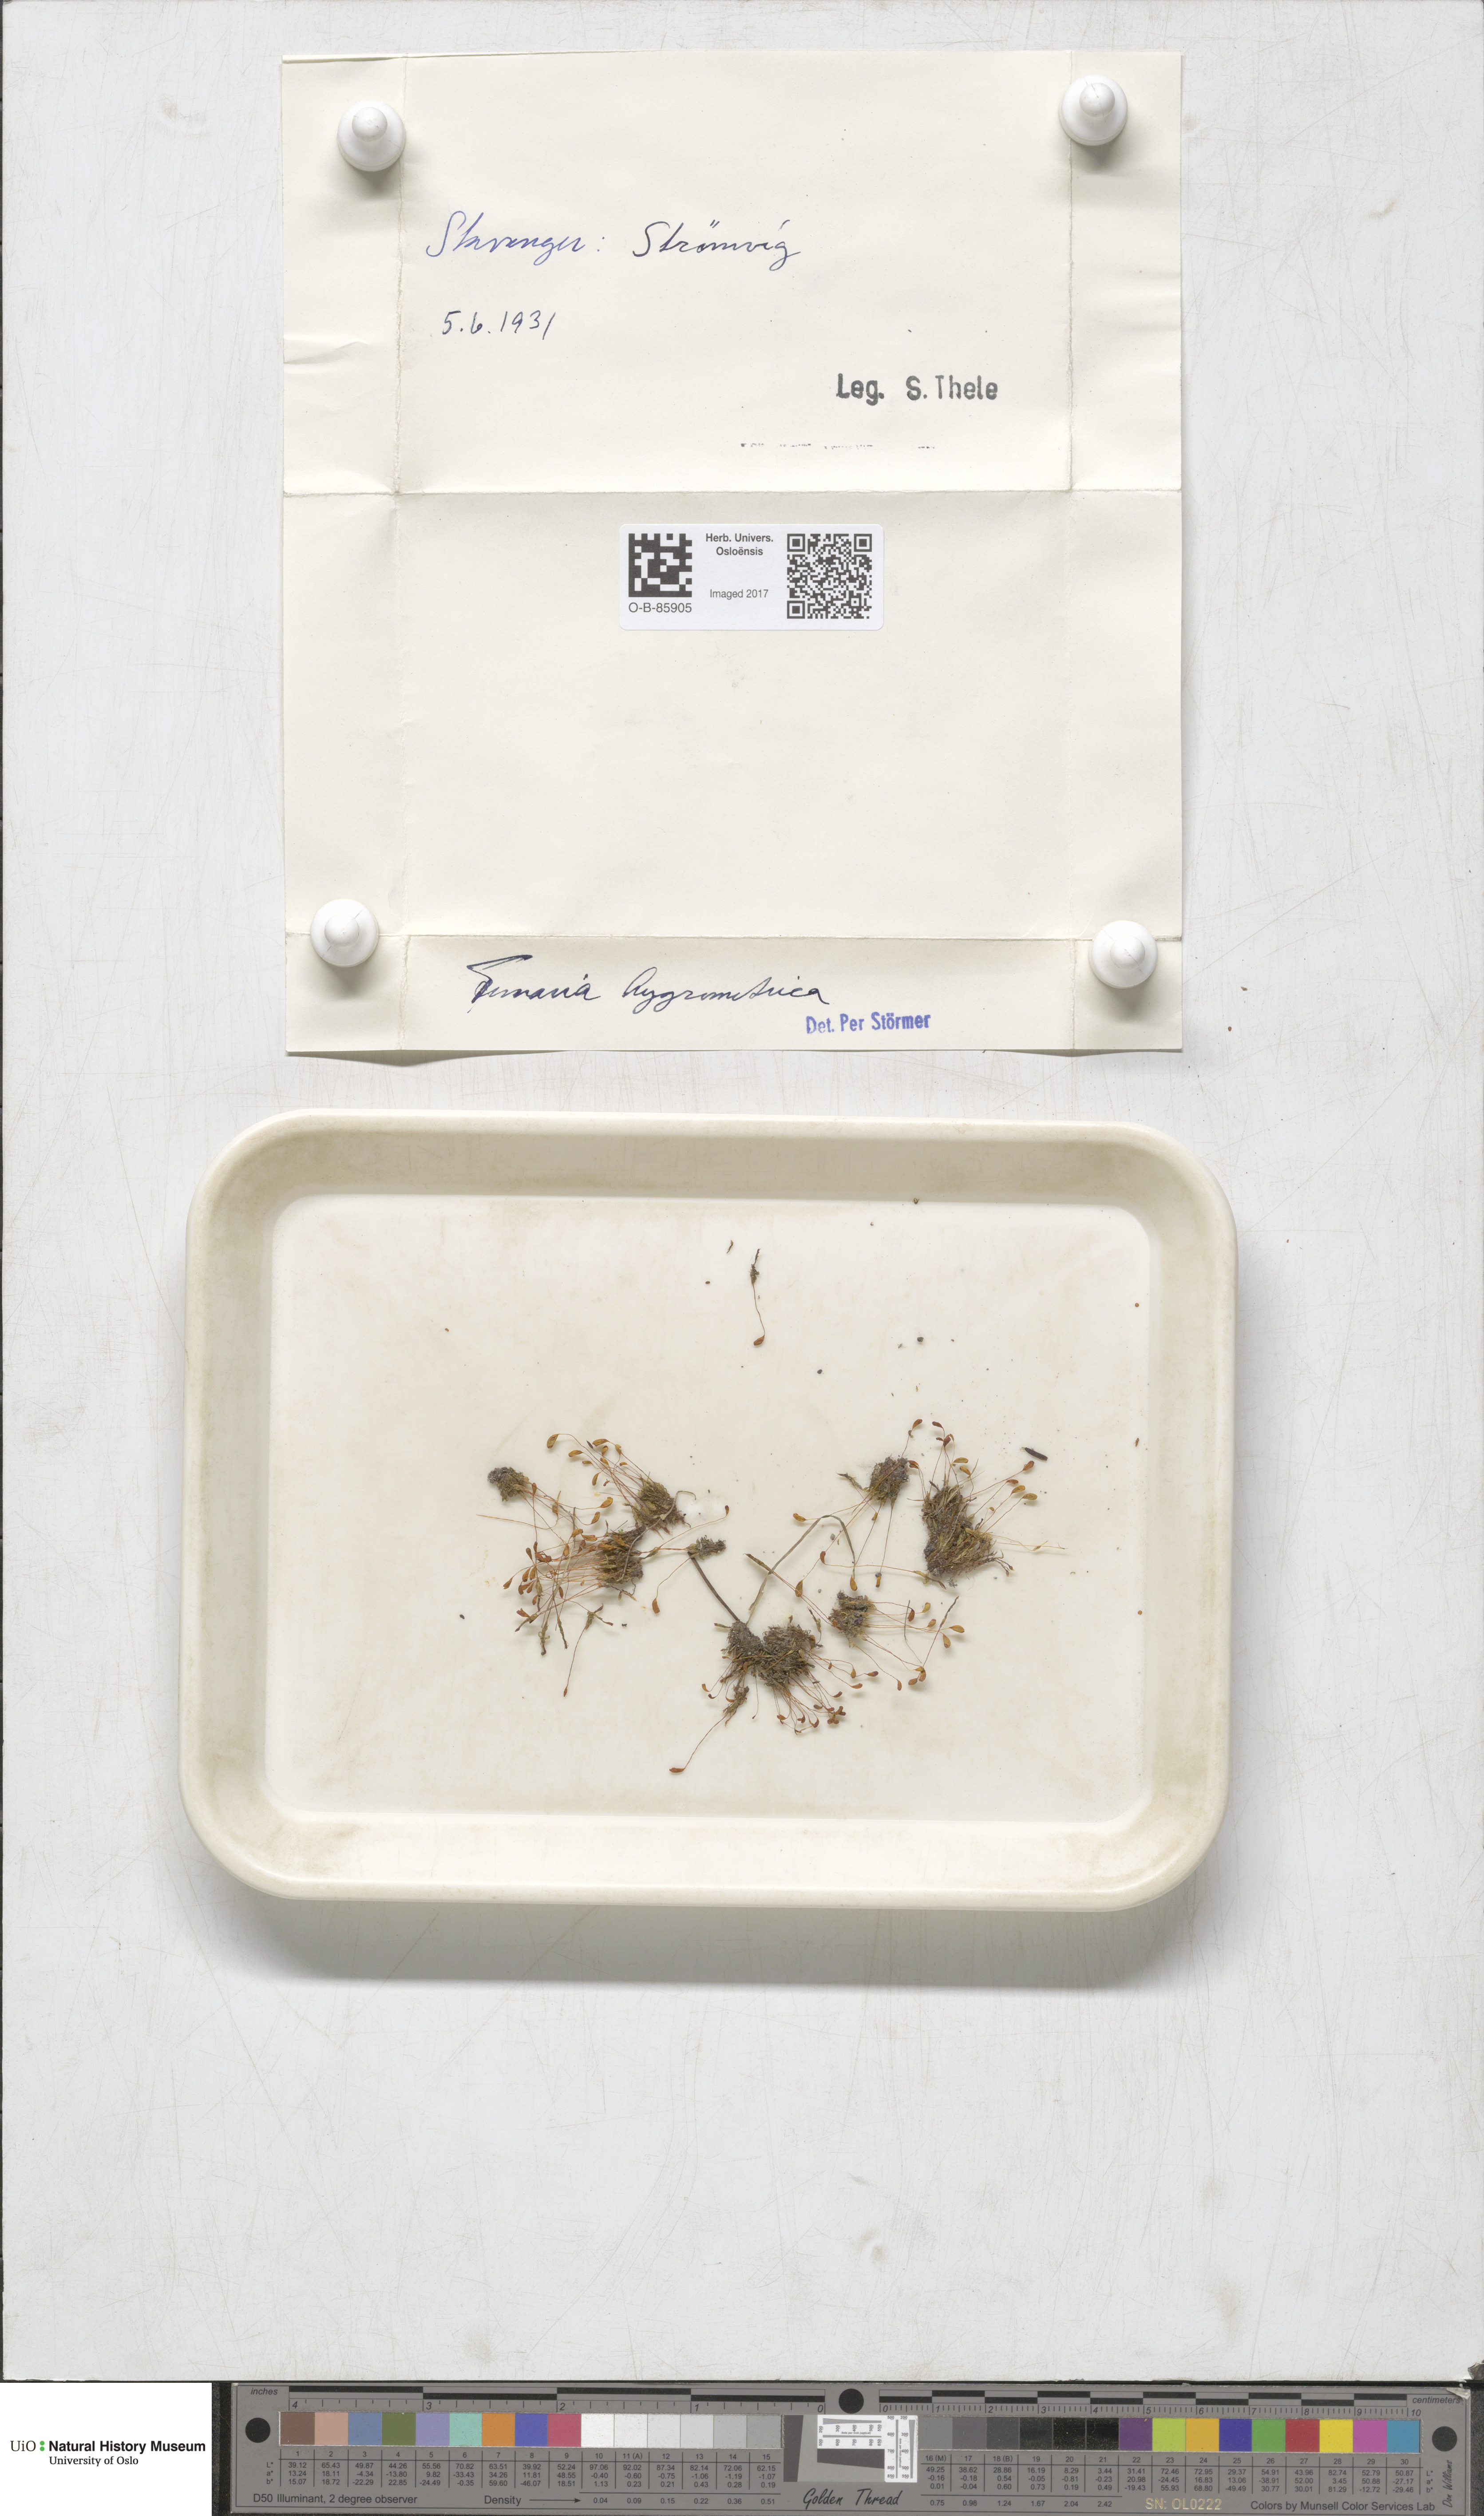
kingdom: Plantae
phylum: Bryophyta
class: Bryopsida
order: Funariales
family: Funariaceae
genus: Funaria
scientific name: Funaria hygrometrica
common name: Common cord moss
